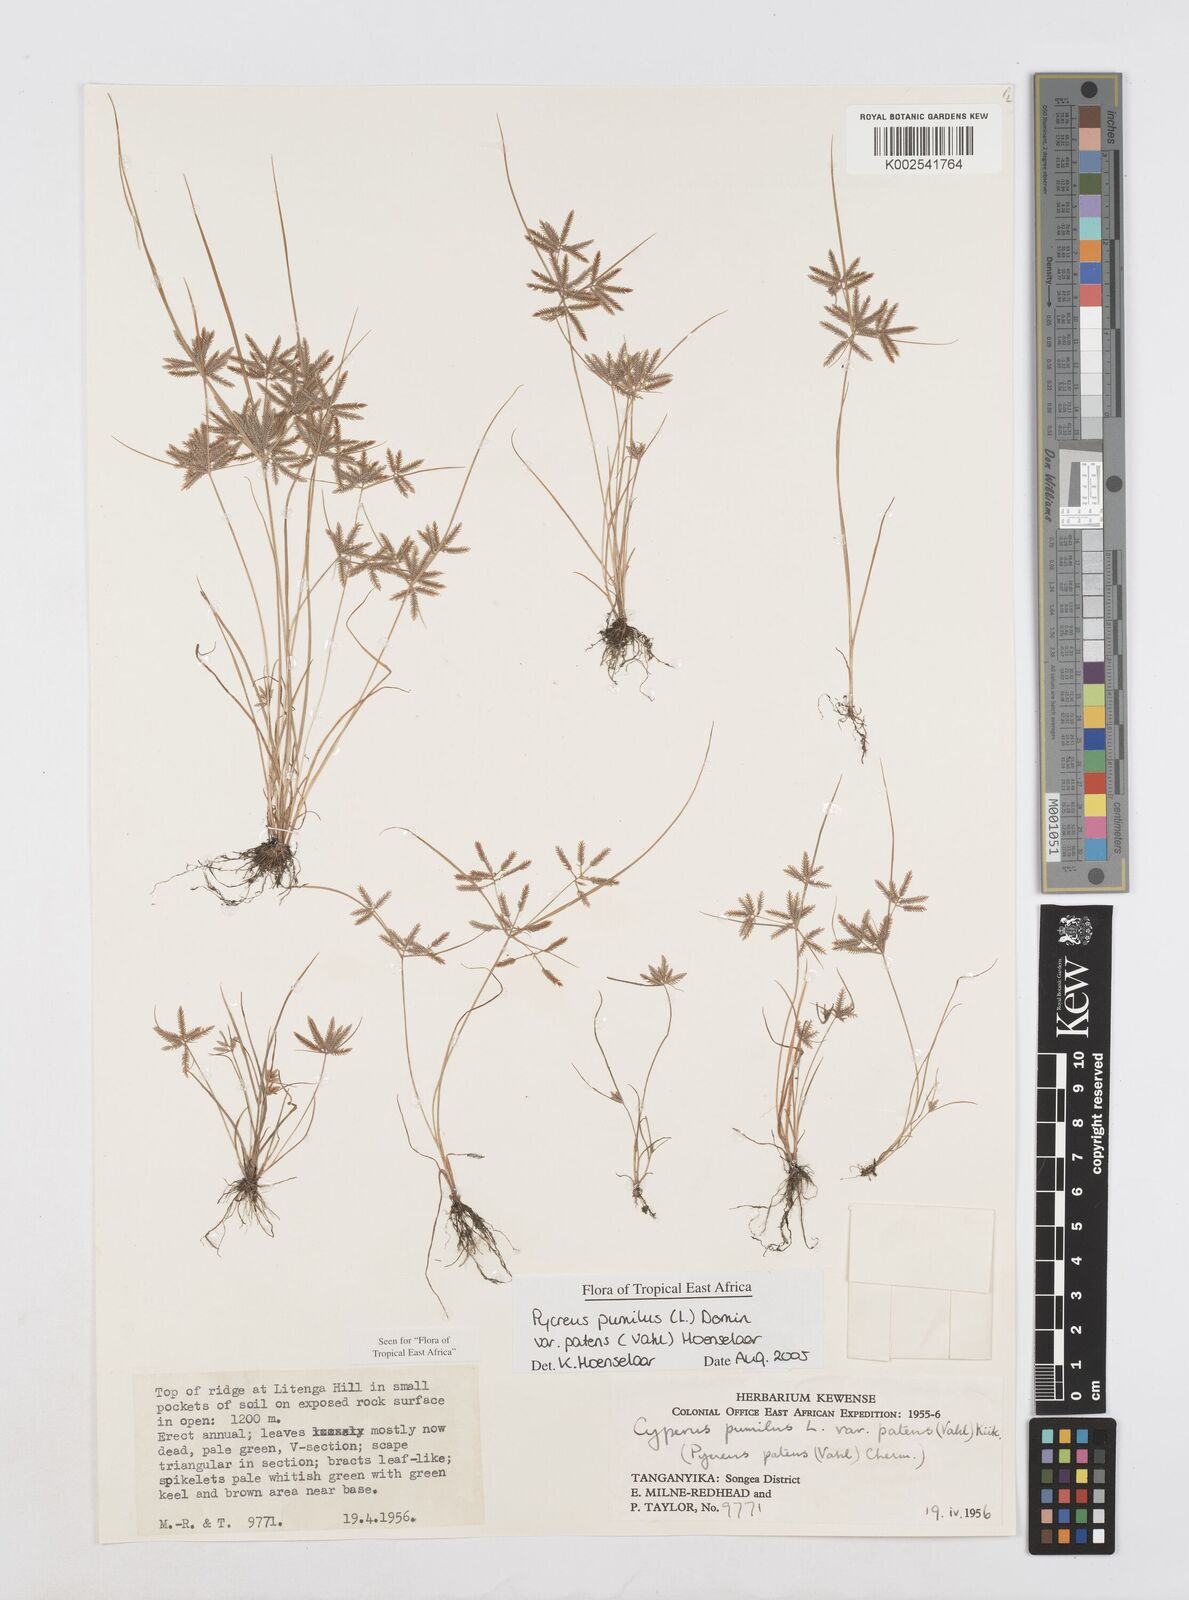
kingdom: Plantae
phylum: Tracheophyta
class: Liliopsida
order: Poales
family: Cyperaceae
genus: Cyperus
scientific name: Cyperus pumilus
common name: Low flatsedge
